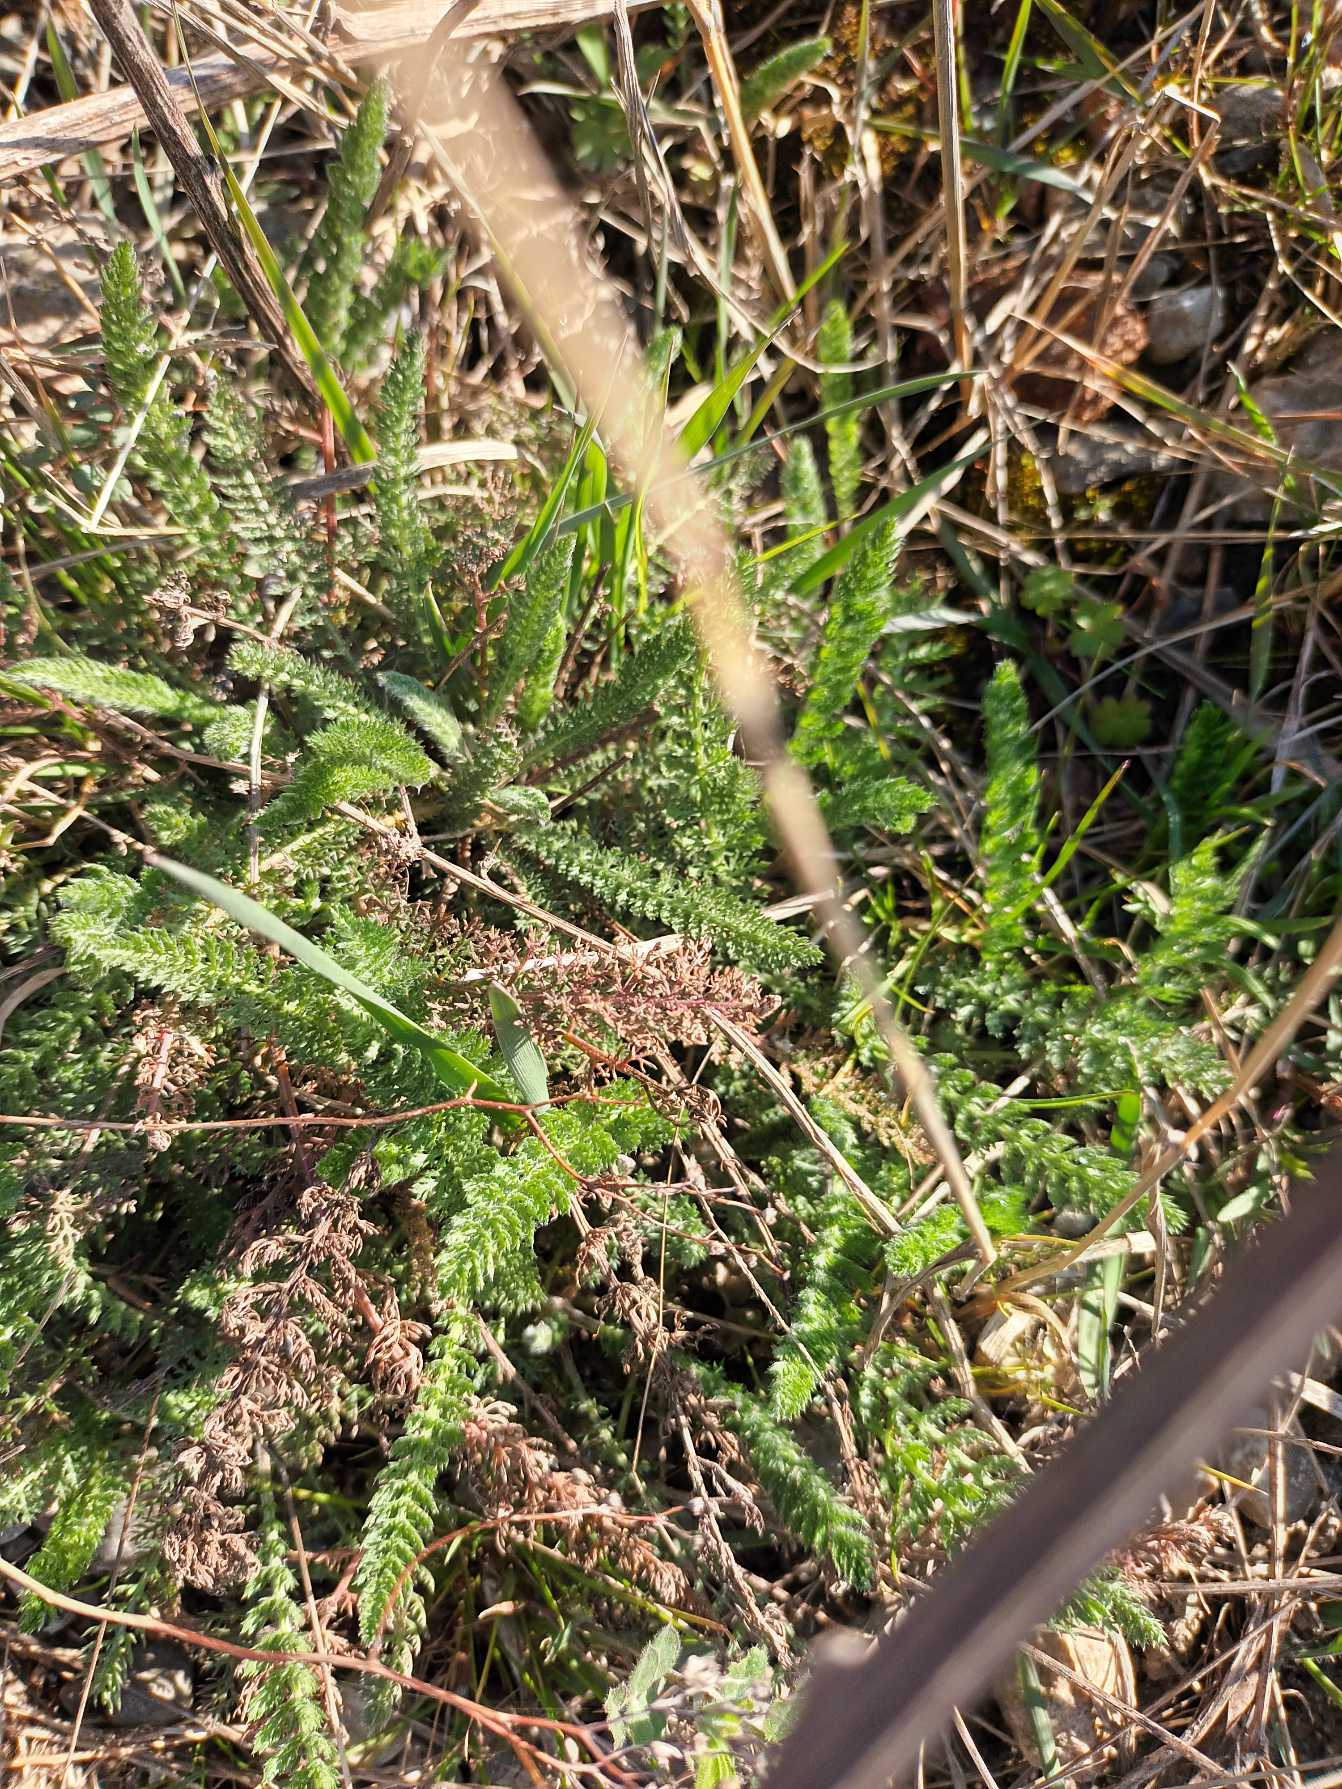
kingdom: Plantae
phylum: Tracheophyta
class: Magnoliopsida
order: Asterales
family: Asteraceae
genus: Achillea
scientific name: Achillea millefolium
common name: Almindelig røllike
